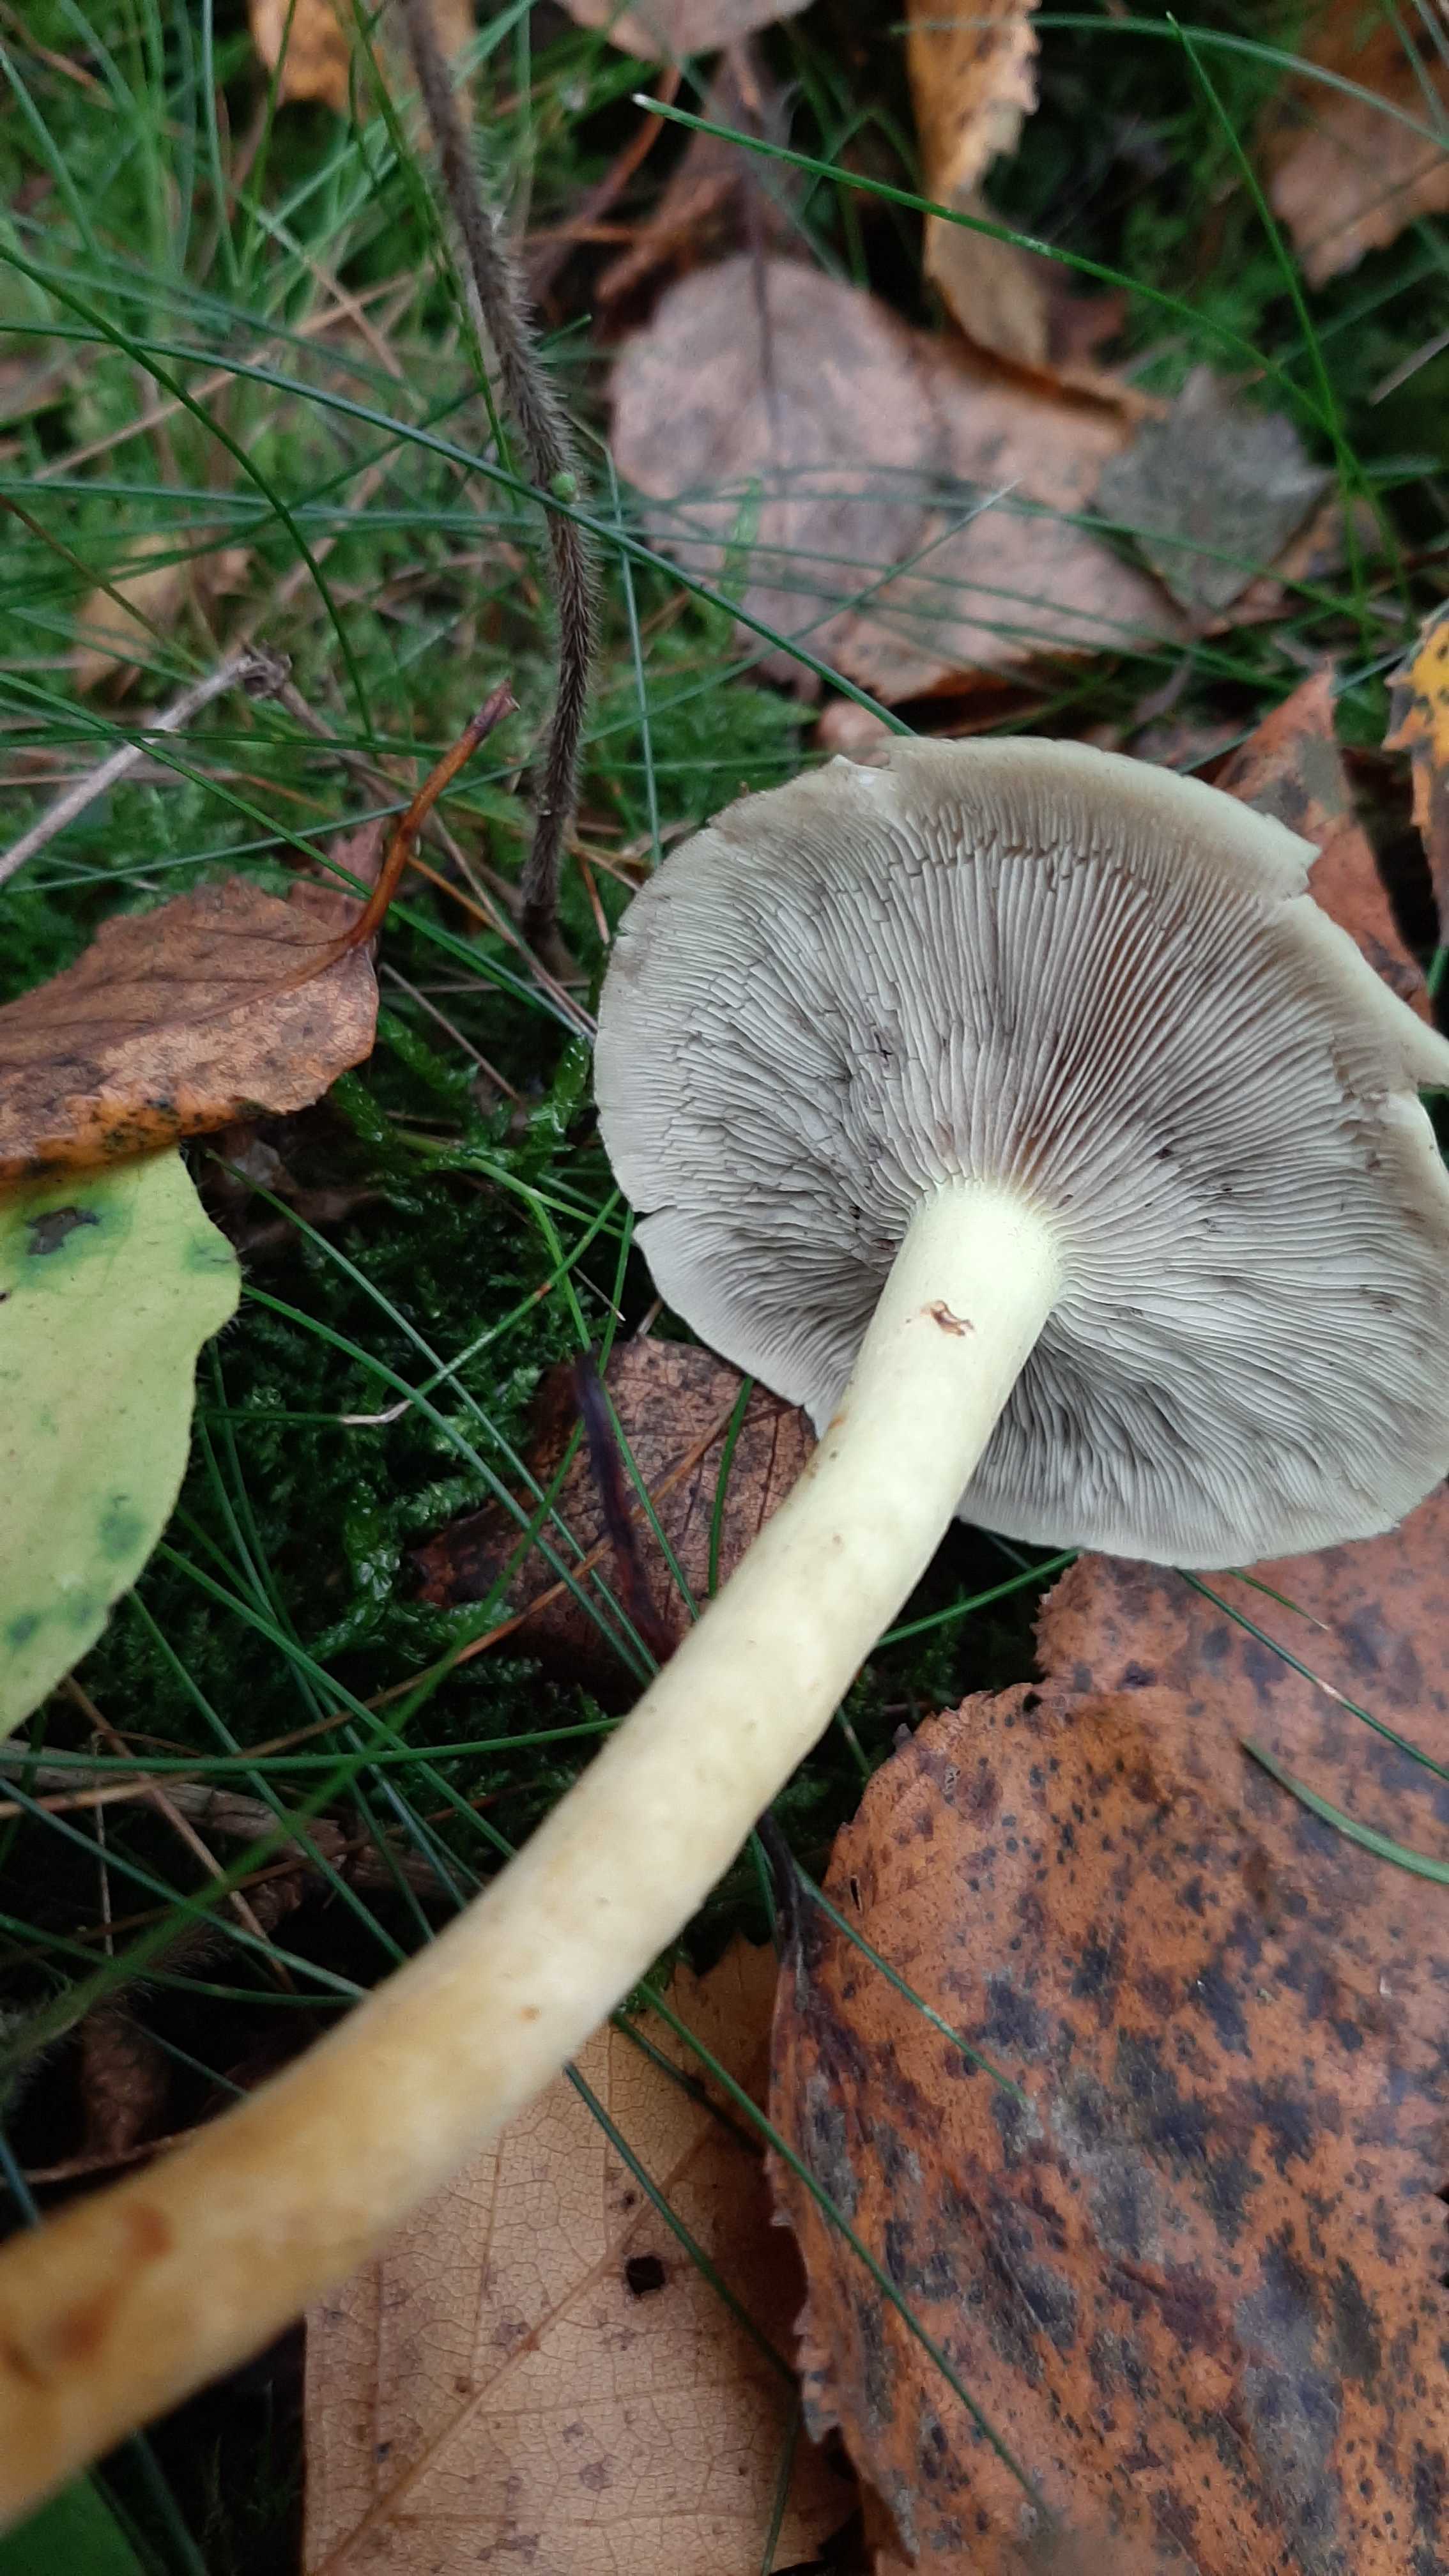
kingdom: Fungi
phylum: Basidiomycota
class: Agaricomycetes
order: Agaricales
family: Strophariaceae
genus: Hypholoma
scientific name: Hypholoma
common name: svovlhat
